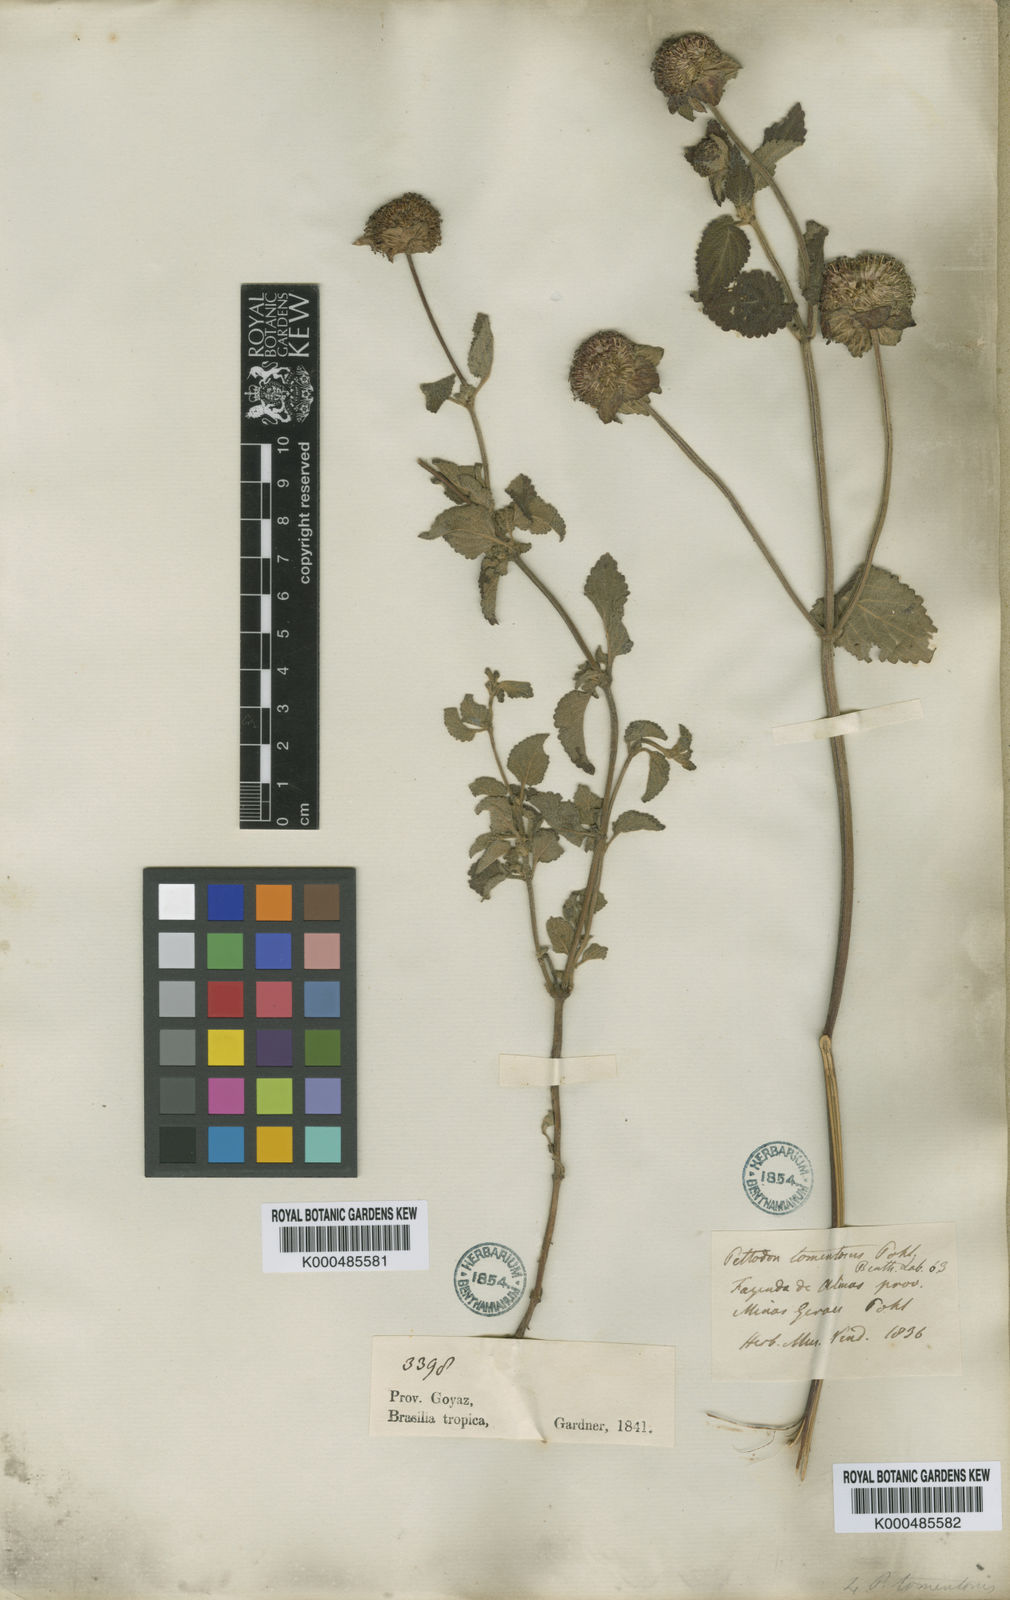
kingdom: Plantae
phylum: Tracheophyta
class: Magnoliopsida
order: Lamiales
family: Lamiaceae
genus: Hyptis
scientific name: Hyptis campestris
